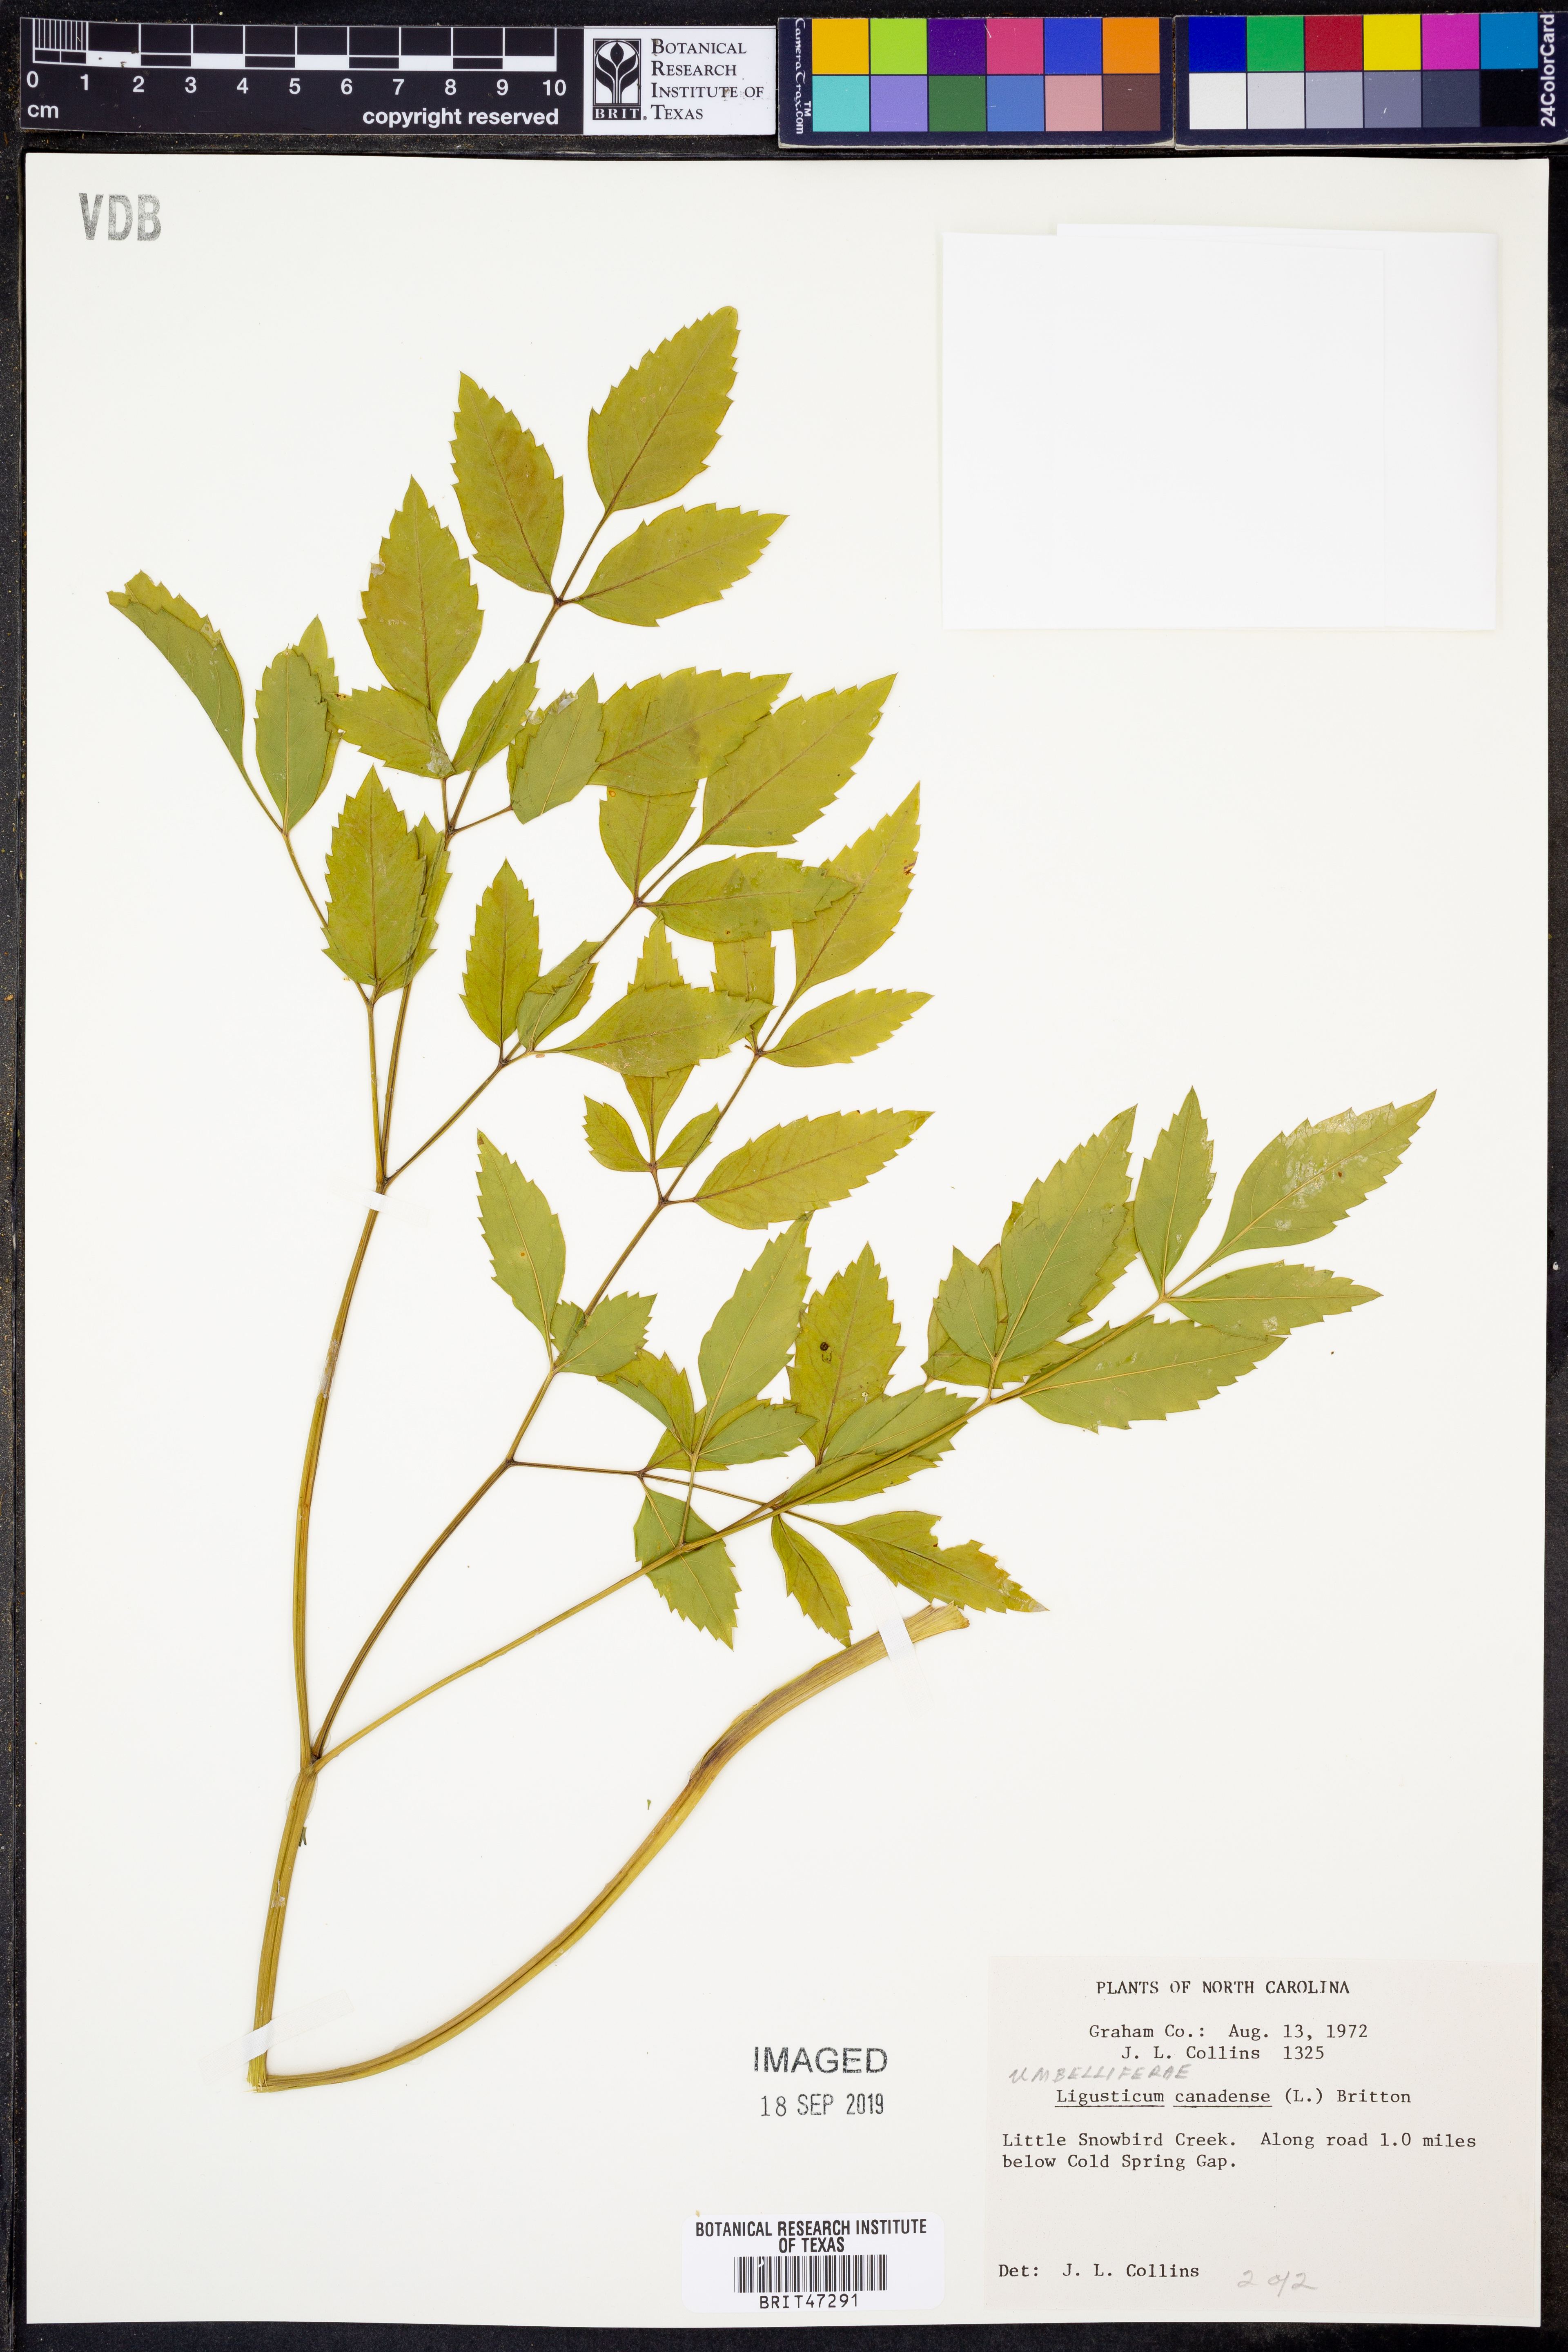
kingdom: Plantae
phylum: Tracheophyta
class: Magnoliopsida
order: Apiales
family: Apiaceae
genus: Ligusticum
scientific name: Ligusticum canadense
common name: American lovage
